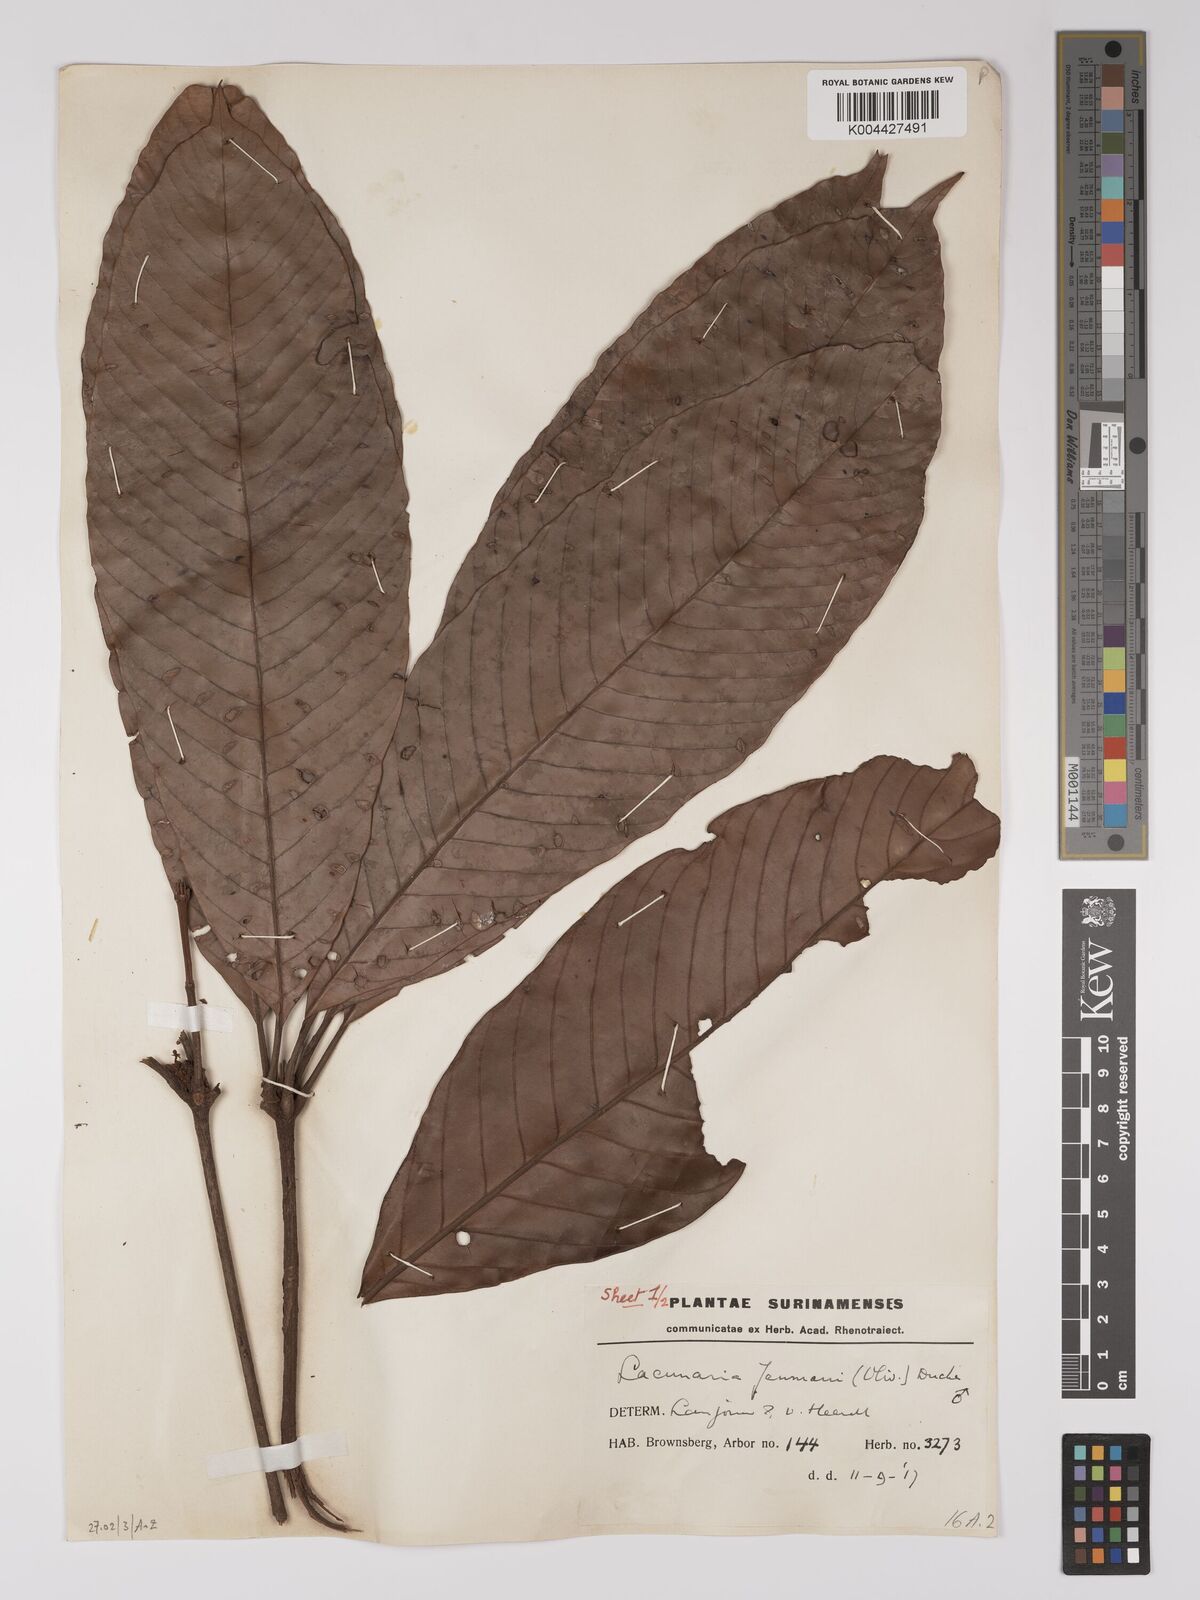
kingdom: Plantae
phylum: Tracheophyta
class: Magnoliopsida
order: Malpighiales
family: Quiinaceae
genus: Lacunaria
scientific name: Lacunaria jenmanii
